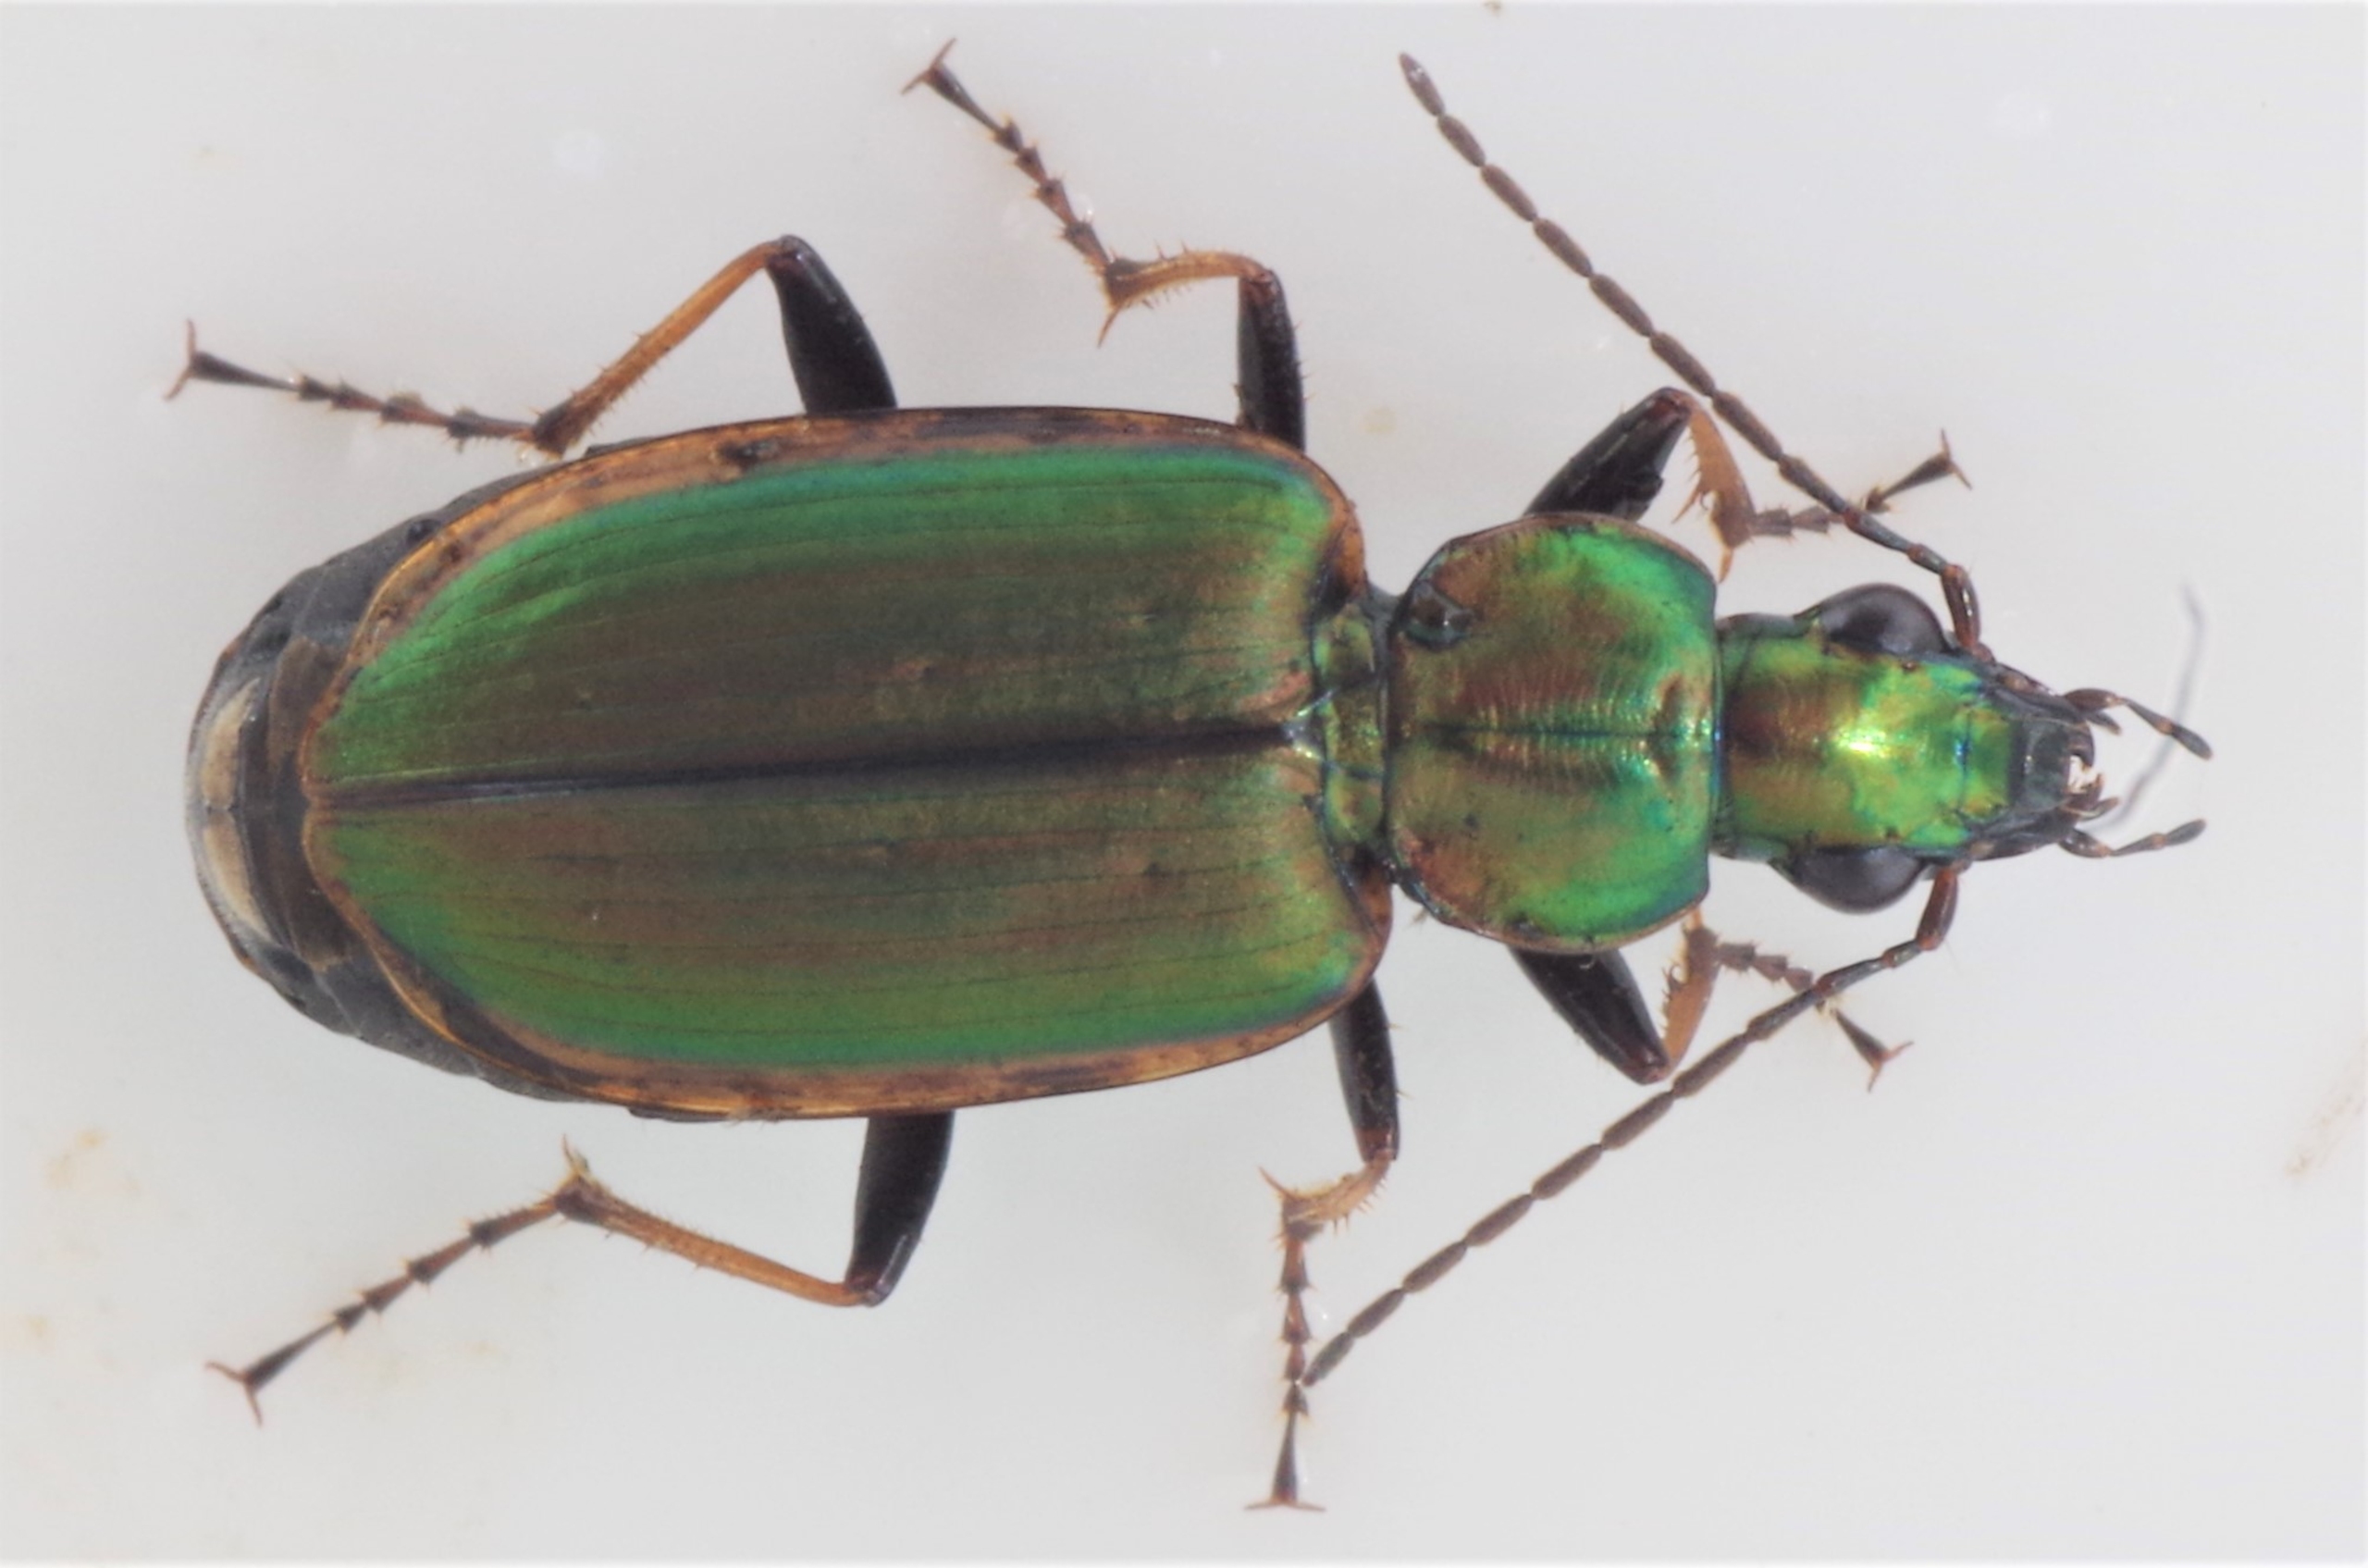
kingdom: Animalia
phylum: Arthropoda
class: Insecta
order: Coleoptera
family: Carabidae
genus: Agonum
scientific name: Agonum marginatum
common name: Gulrandet kvikløber
